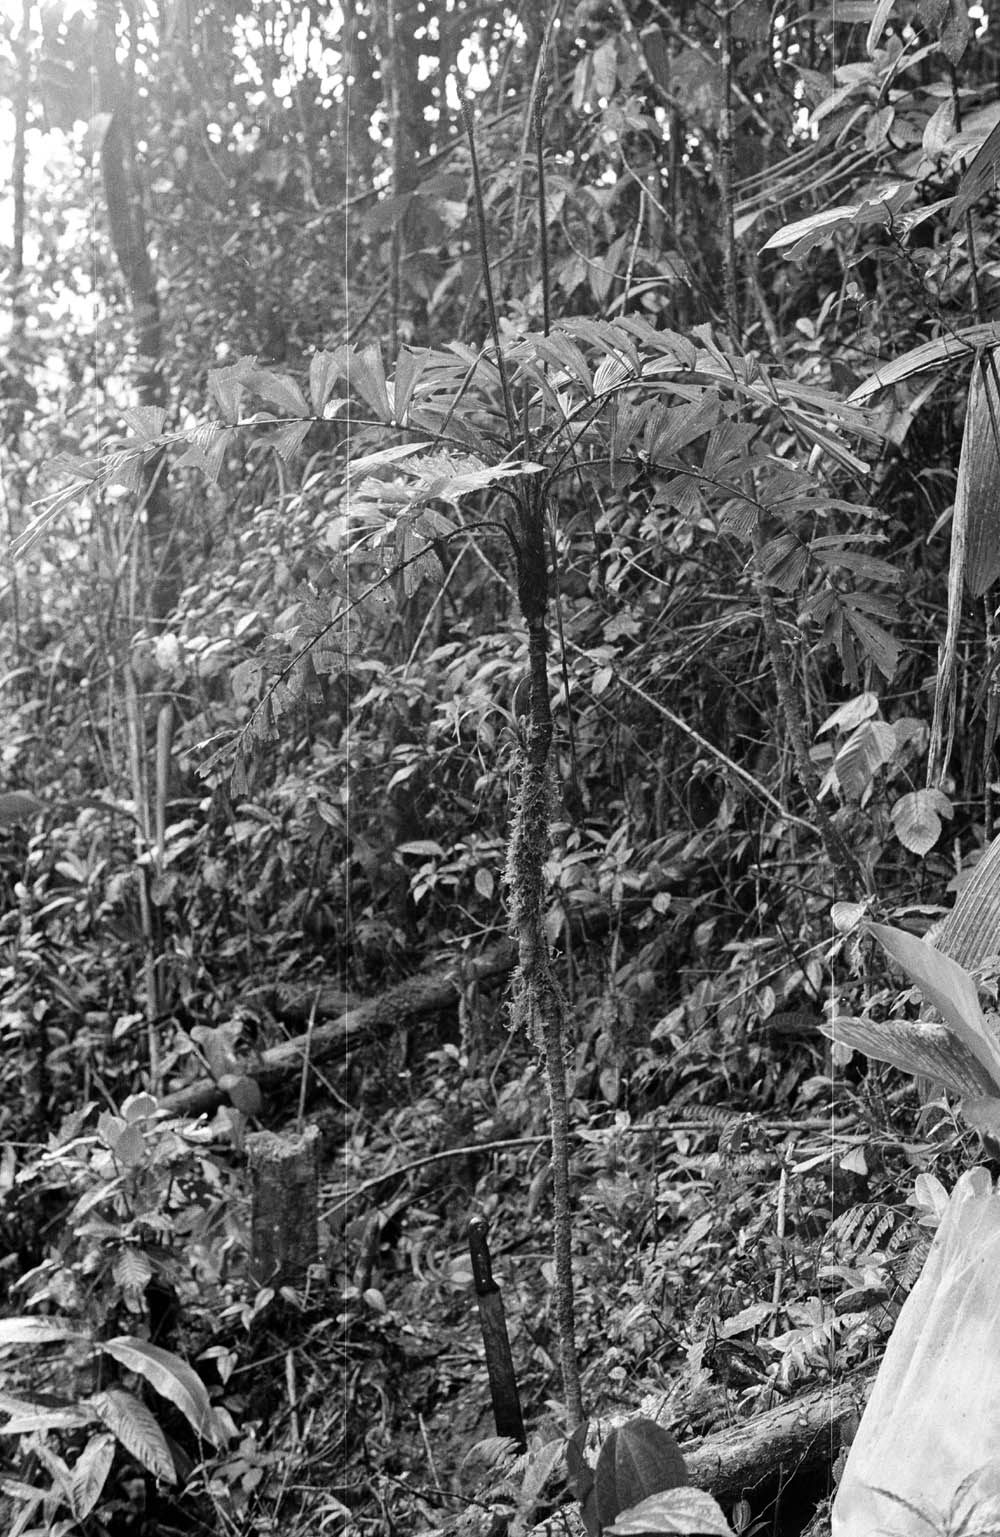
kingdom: Plantae
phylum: Tracheophyta
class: Liliopsida
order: Arecales
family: Arecaceae
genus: Aiphanes
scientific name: Aiphanes ulei
